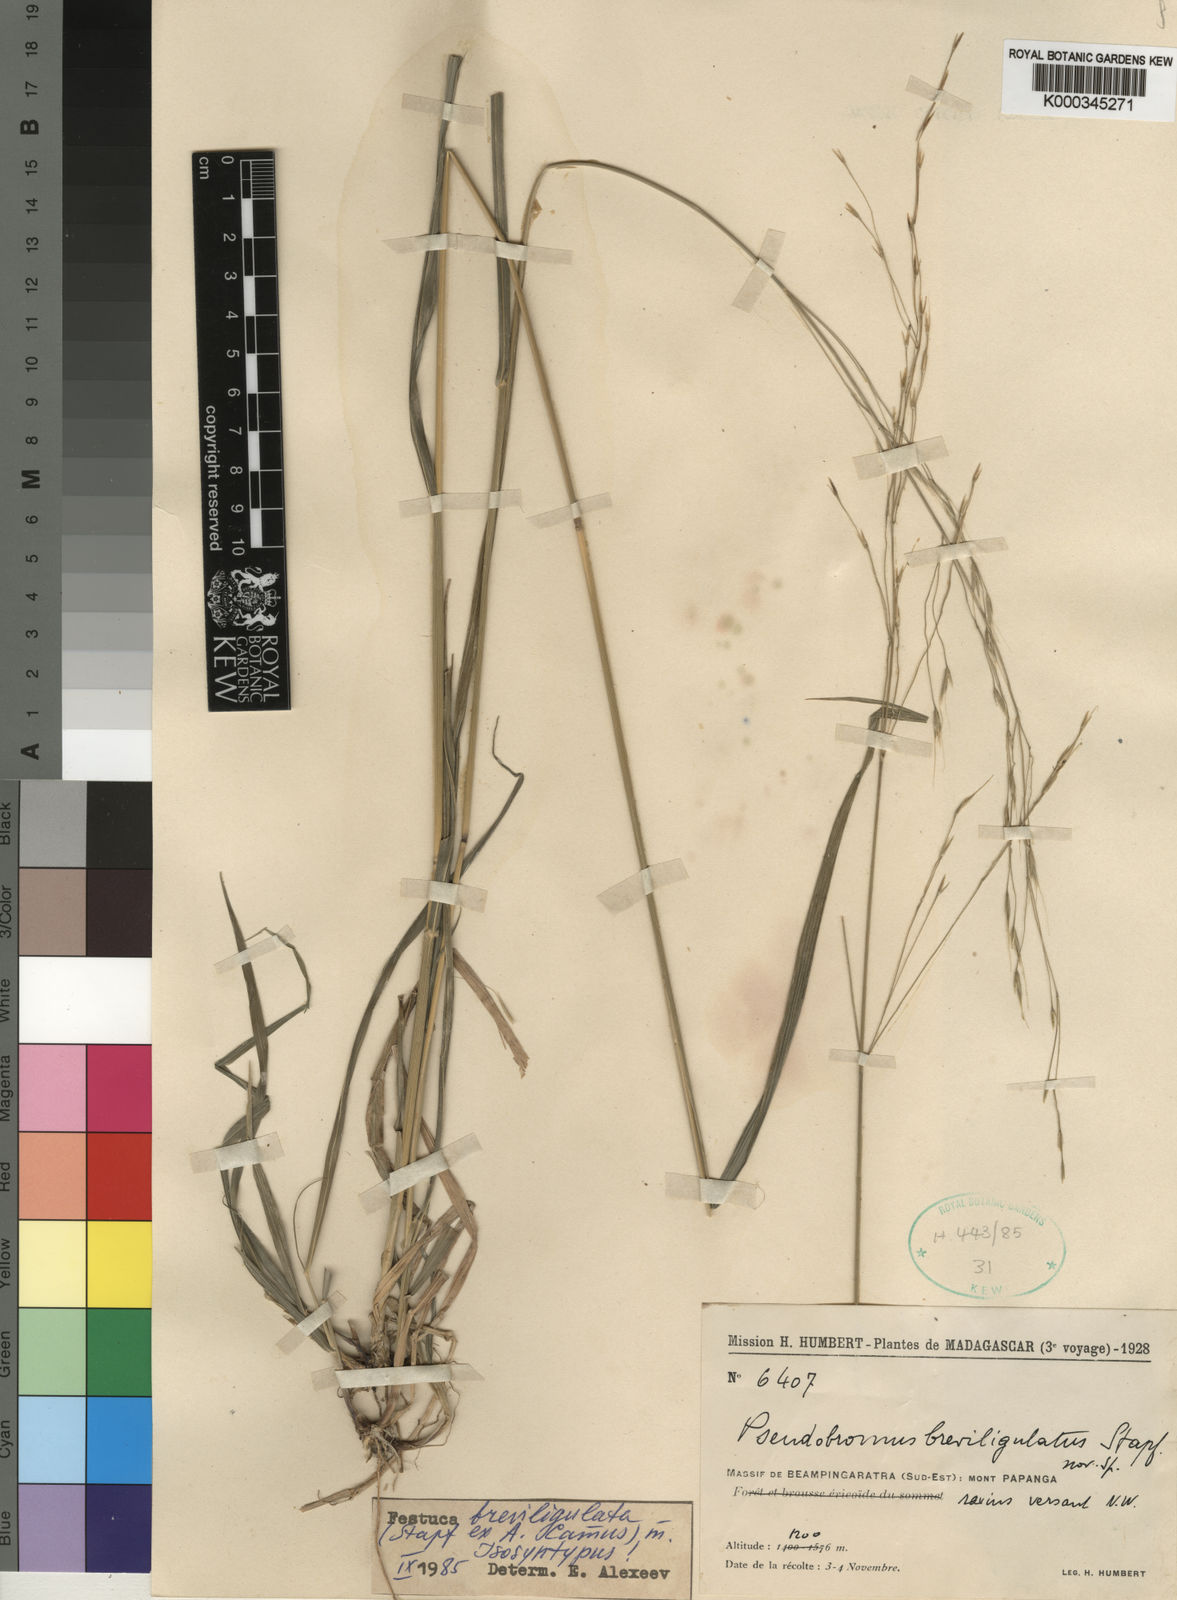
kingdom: Plantae
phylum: Tracheophyta
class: Liliopsida
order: Poales
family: Poaceae
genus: Festuca
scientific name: Festuca
